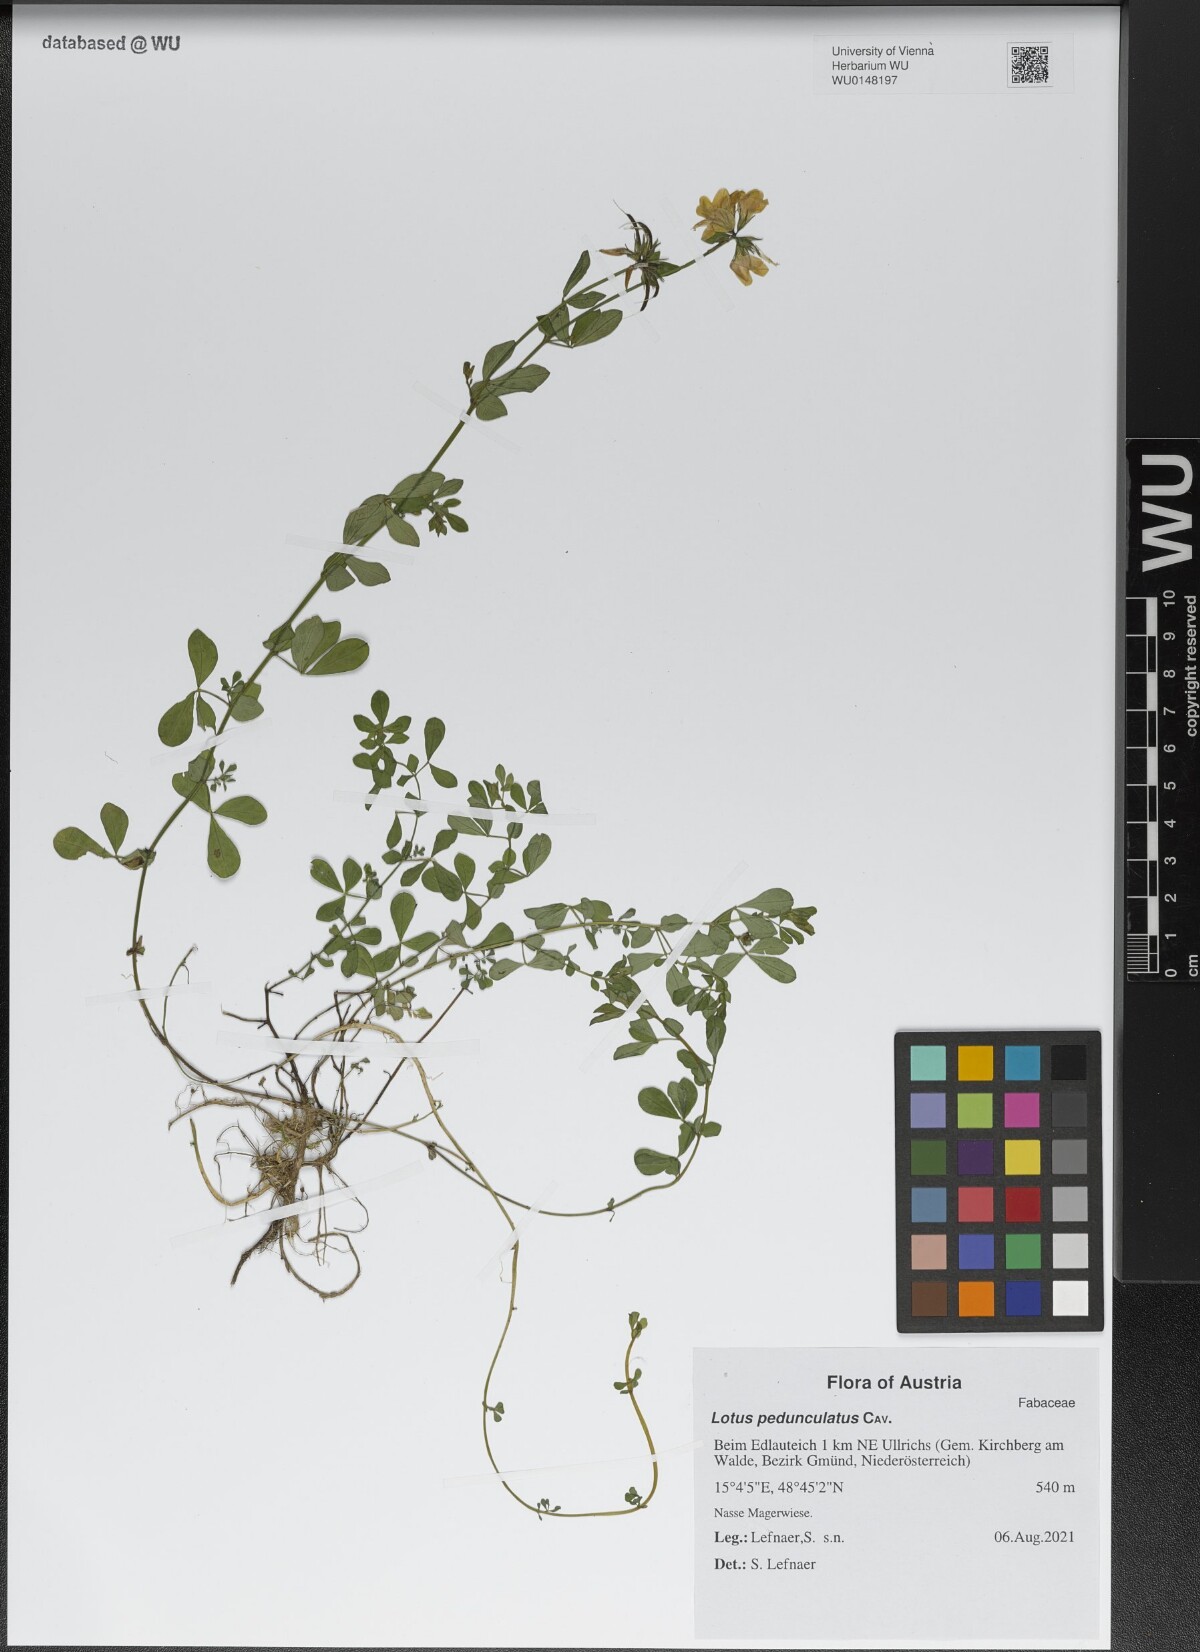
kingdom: Plantae
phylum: Tracheophyta
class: Magnoliopsida
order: Fabales
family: Fabaceae
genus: Lotus
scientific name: Lotus pedunculatus
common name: Greater birdsfoot-trefoil
